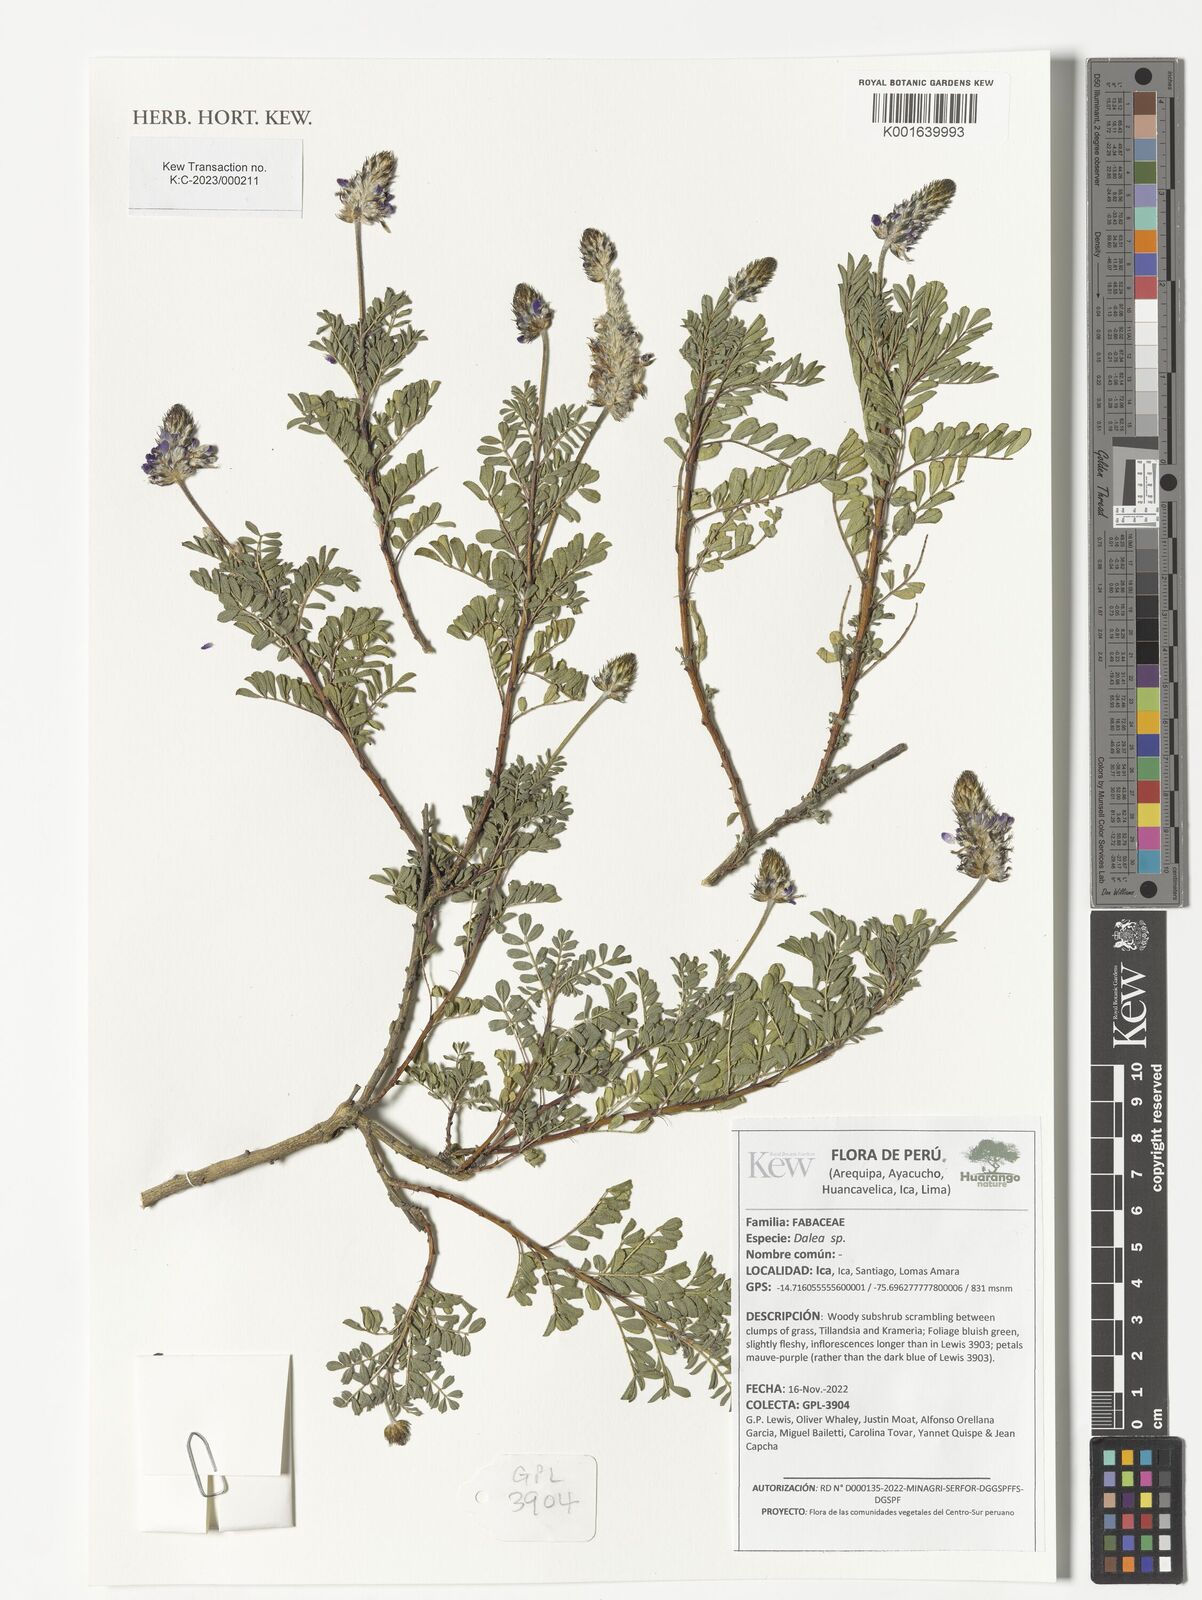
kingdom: Plantae
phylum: Tracheophyta
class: Magnoliopsida
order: Fabales
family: Fabaceae
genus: Dalea
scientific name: Dalea
